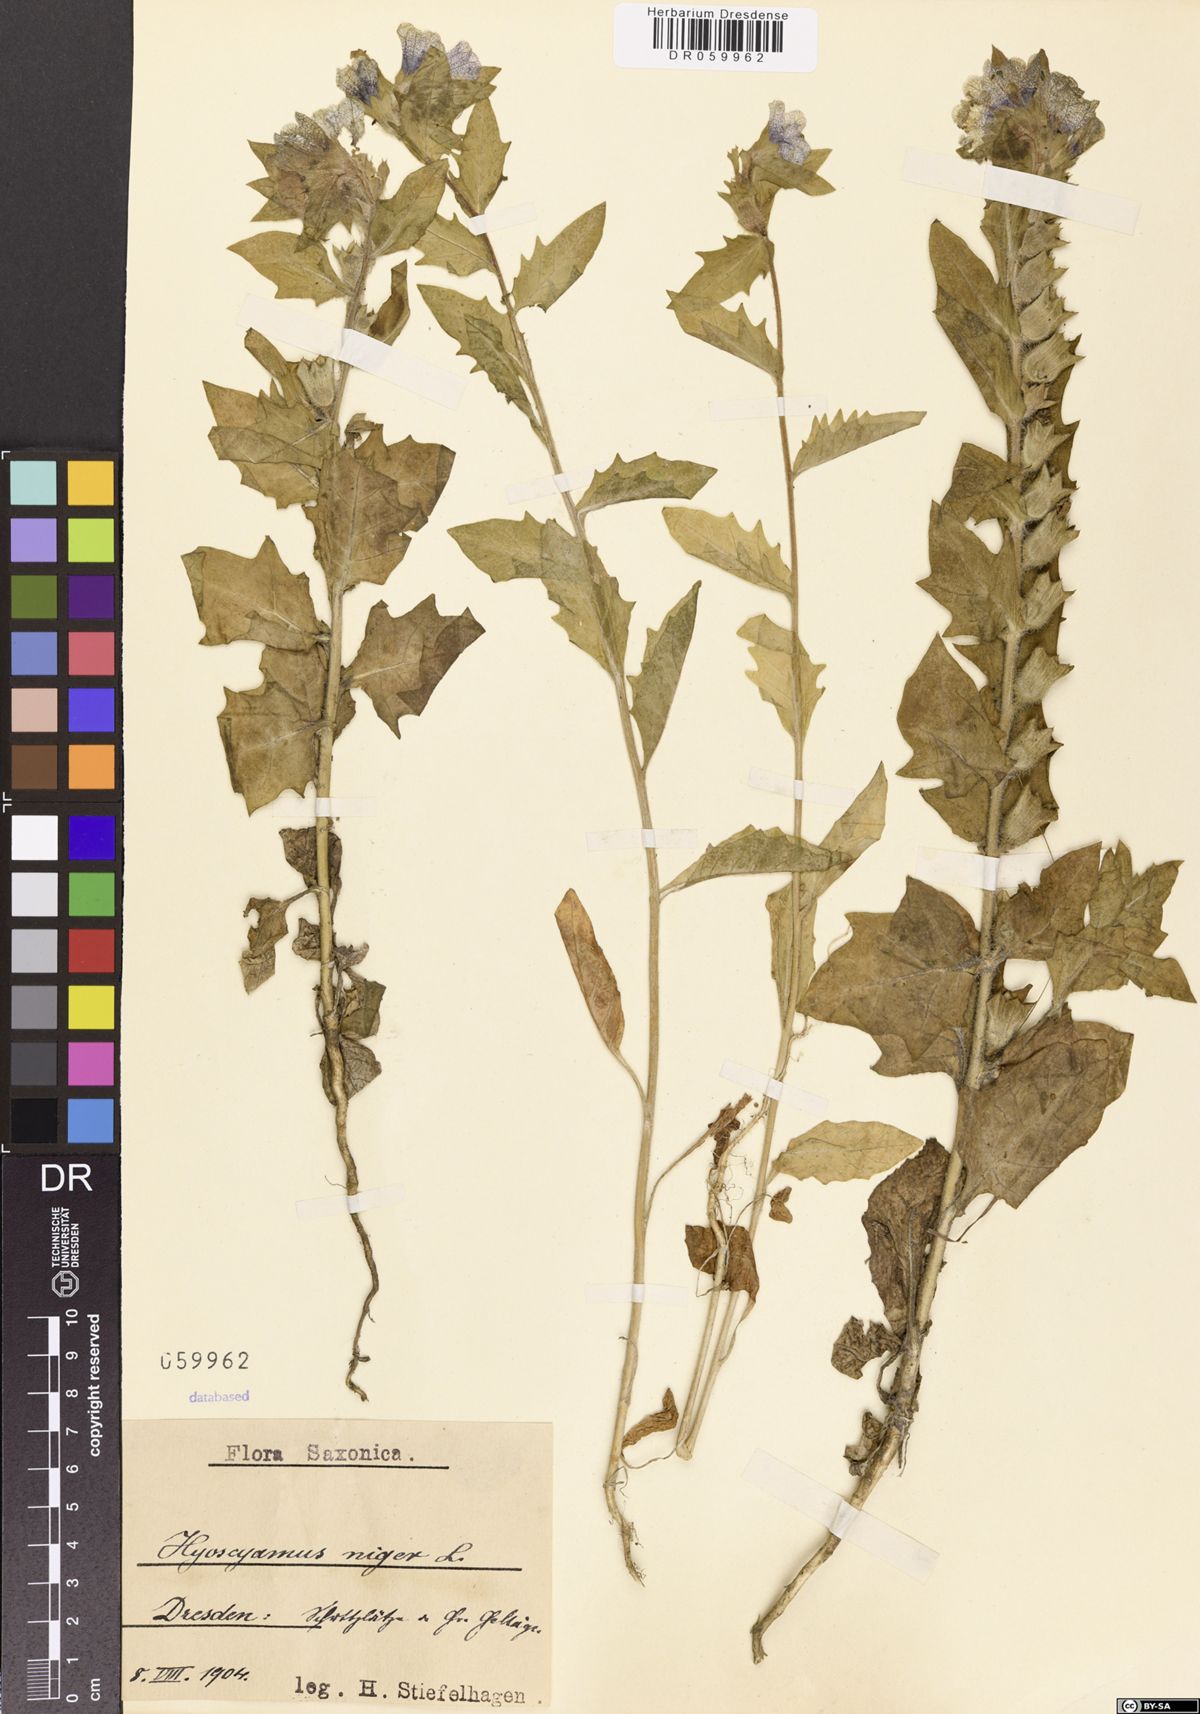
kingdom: Plantae
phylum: Tracheophyta
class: Magnoliopsida
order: Solanales
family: Solanaceae
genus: Hyoscyamus
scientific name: Hyoscyamus niger
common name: Henbane
